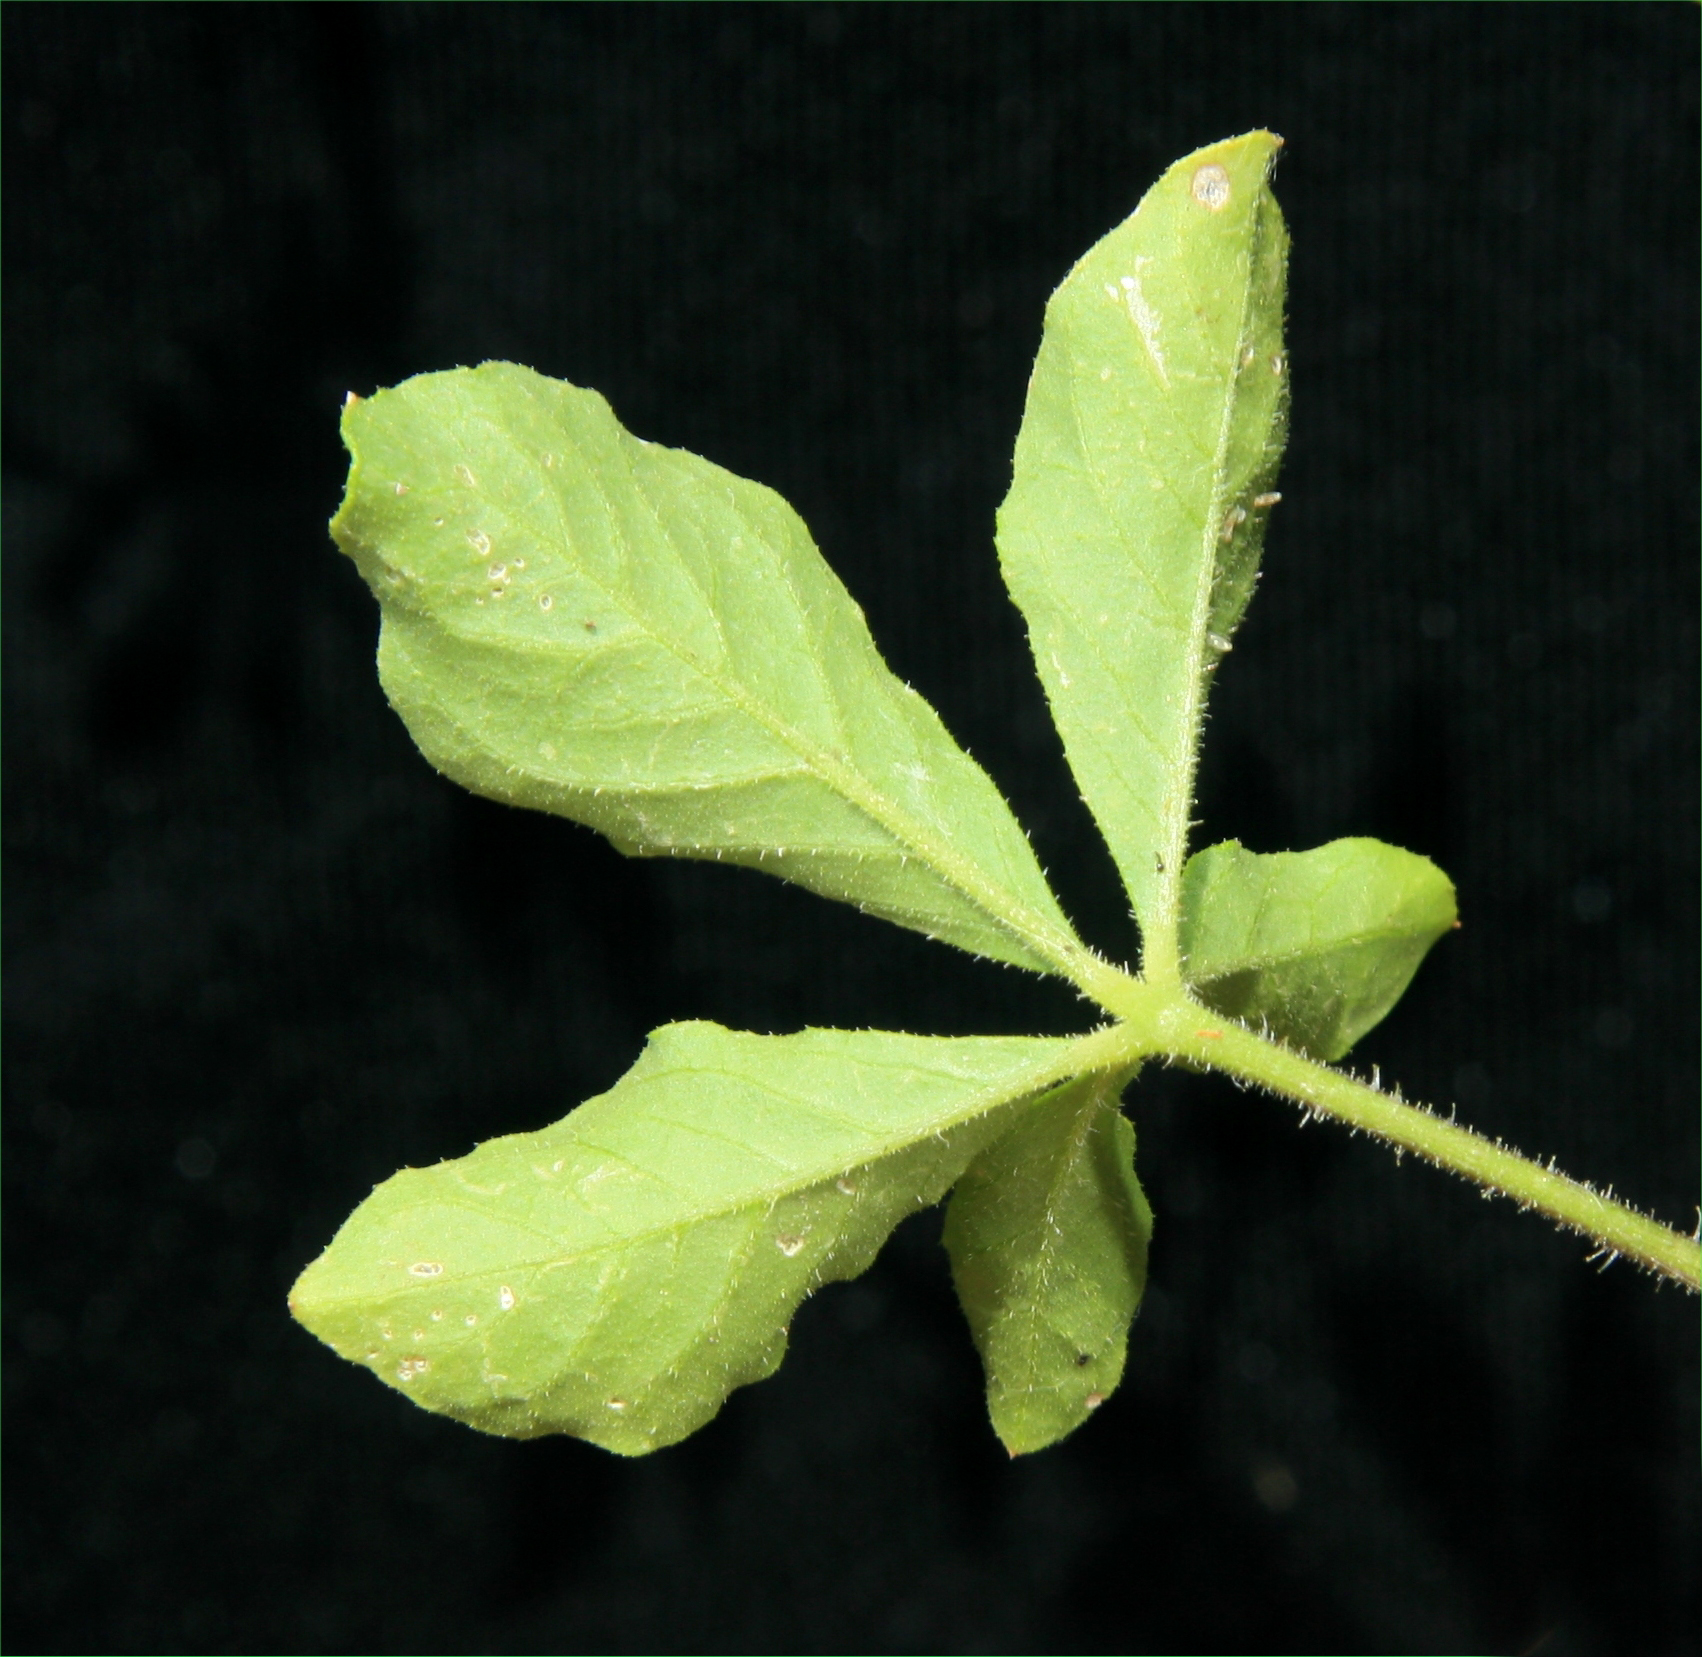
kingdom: Plantae
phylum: Tracheophyta
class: Magnoliopsida
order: Brassicales
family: Cleomaceae
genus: Arivela
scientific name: Arivela viscosa
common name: Asian spiderflower
